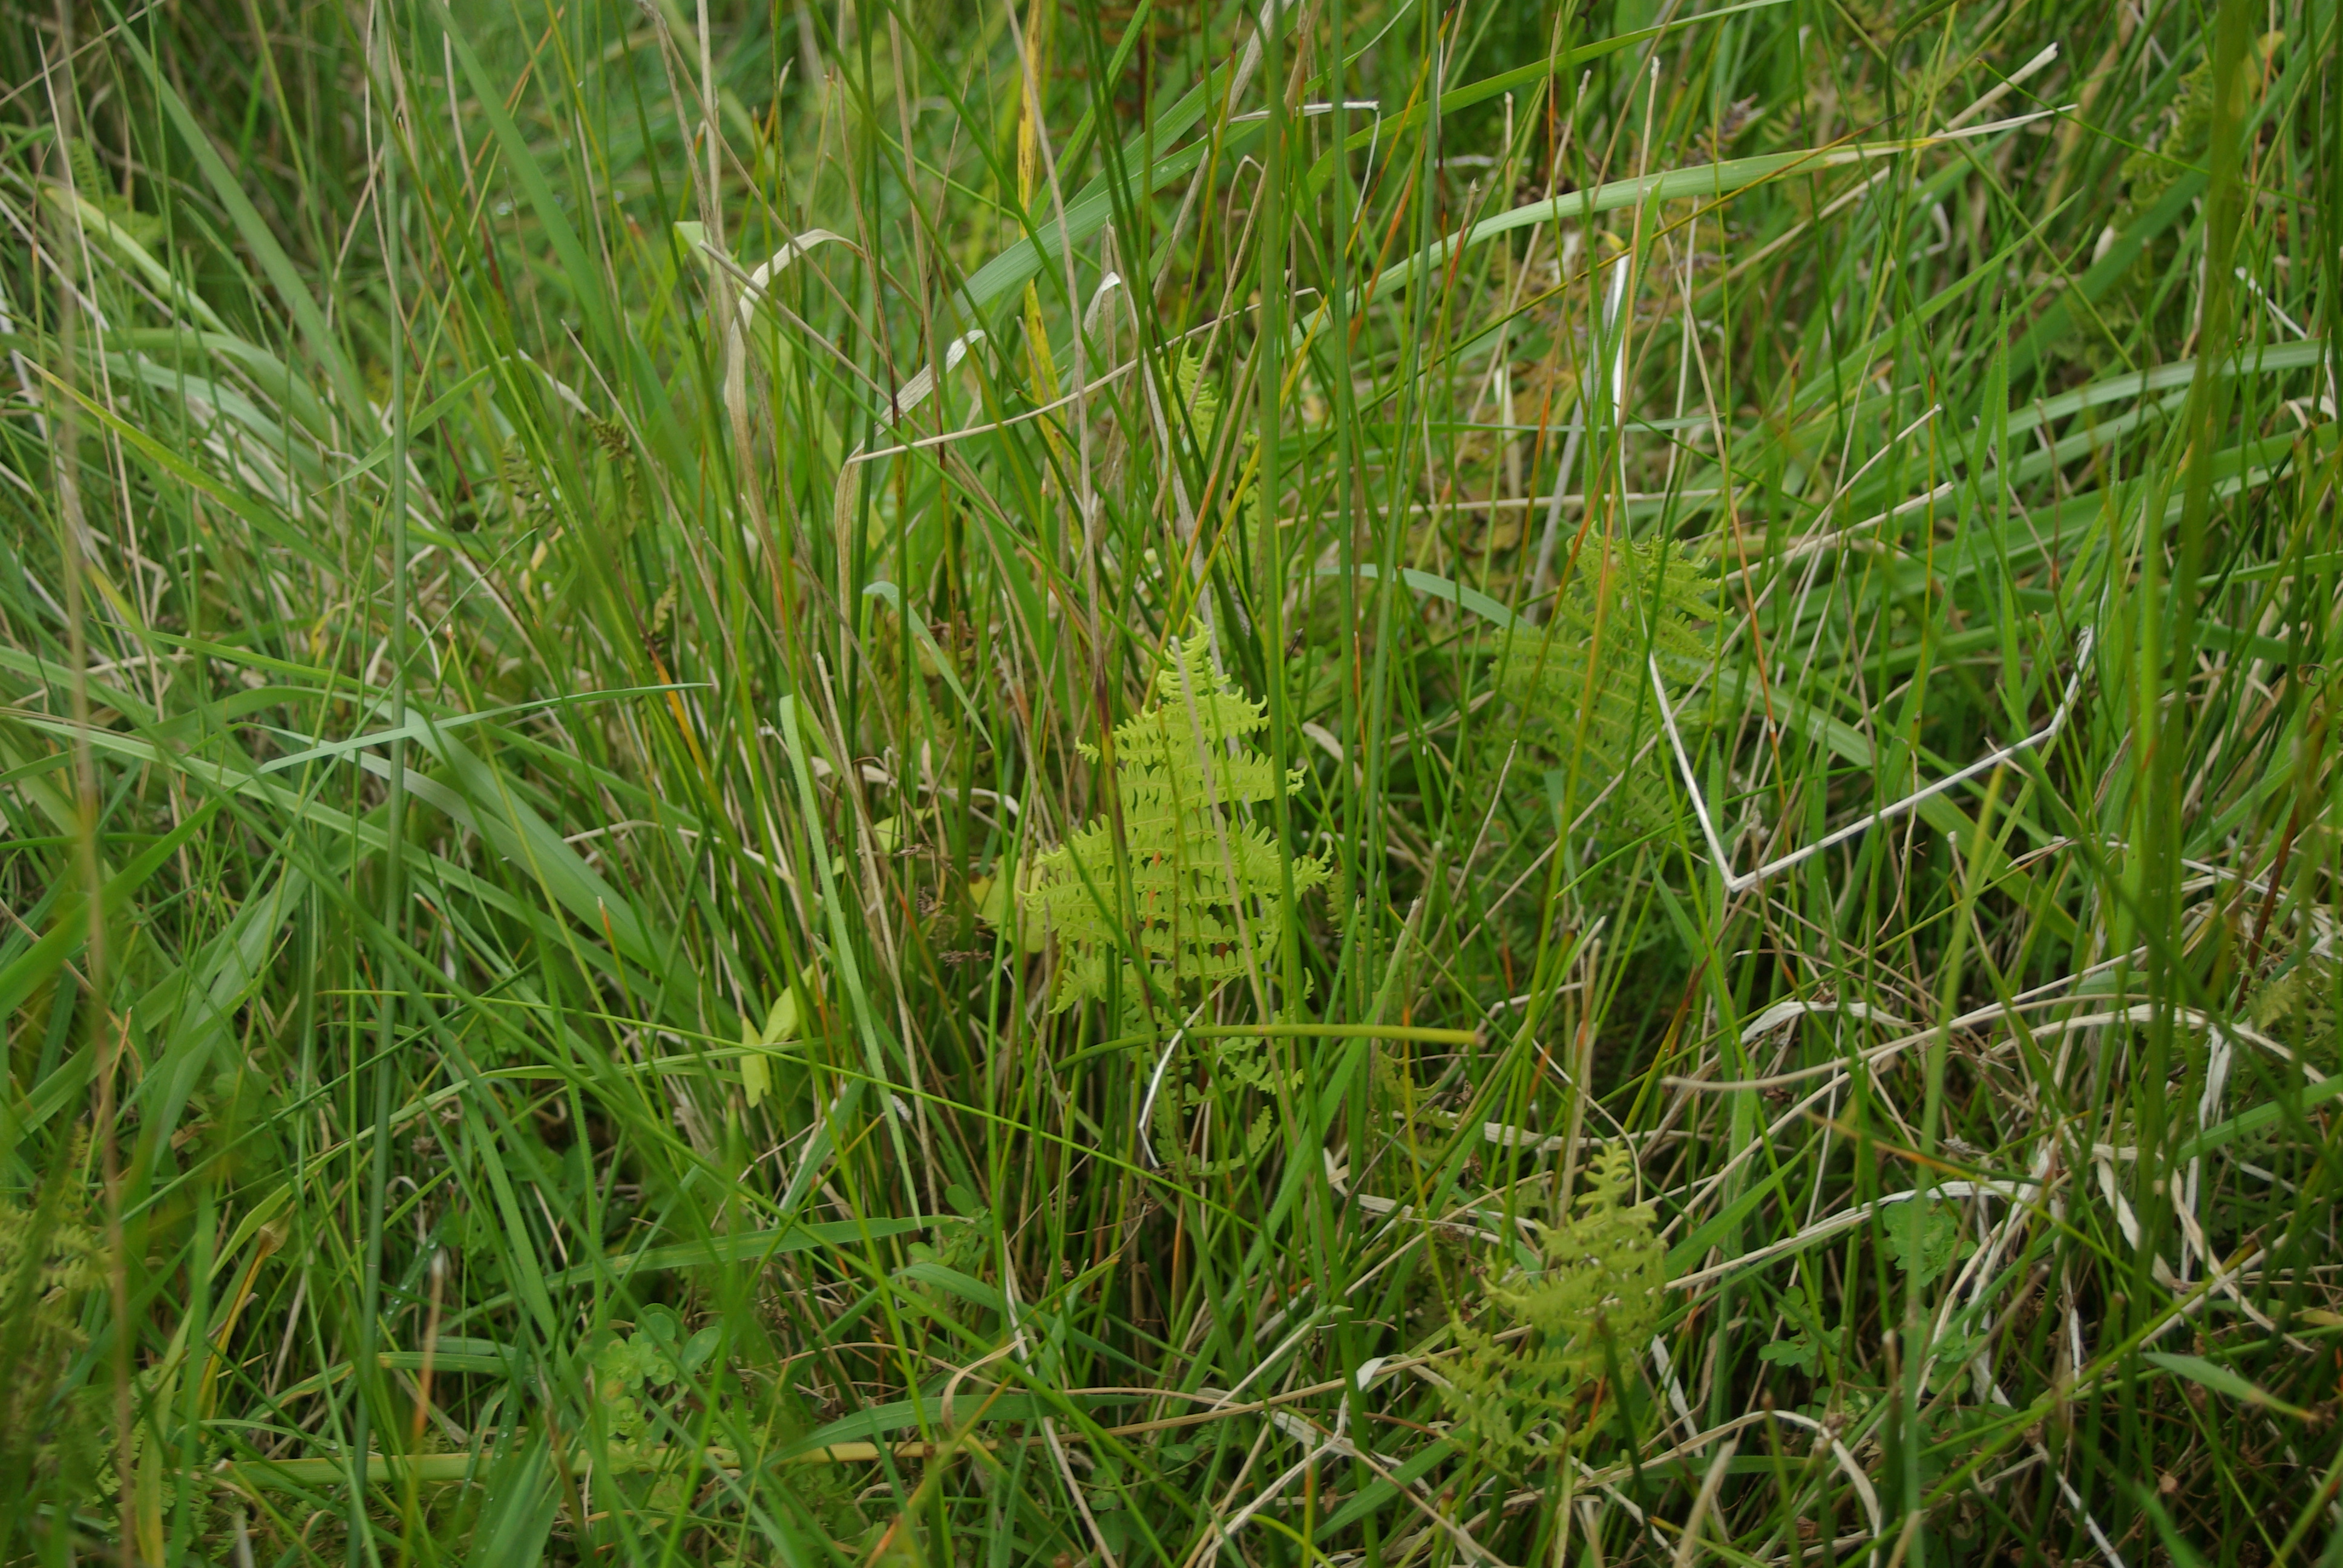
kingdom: Plantae
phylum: Tracheophyta
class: Polypodiopsida
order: Polypodiales
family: Thelypteridaceae
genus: Thelypteris
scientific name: Thelypteris confluens
